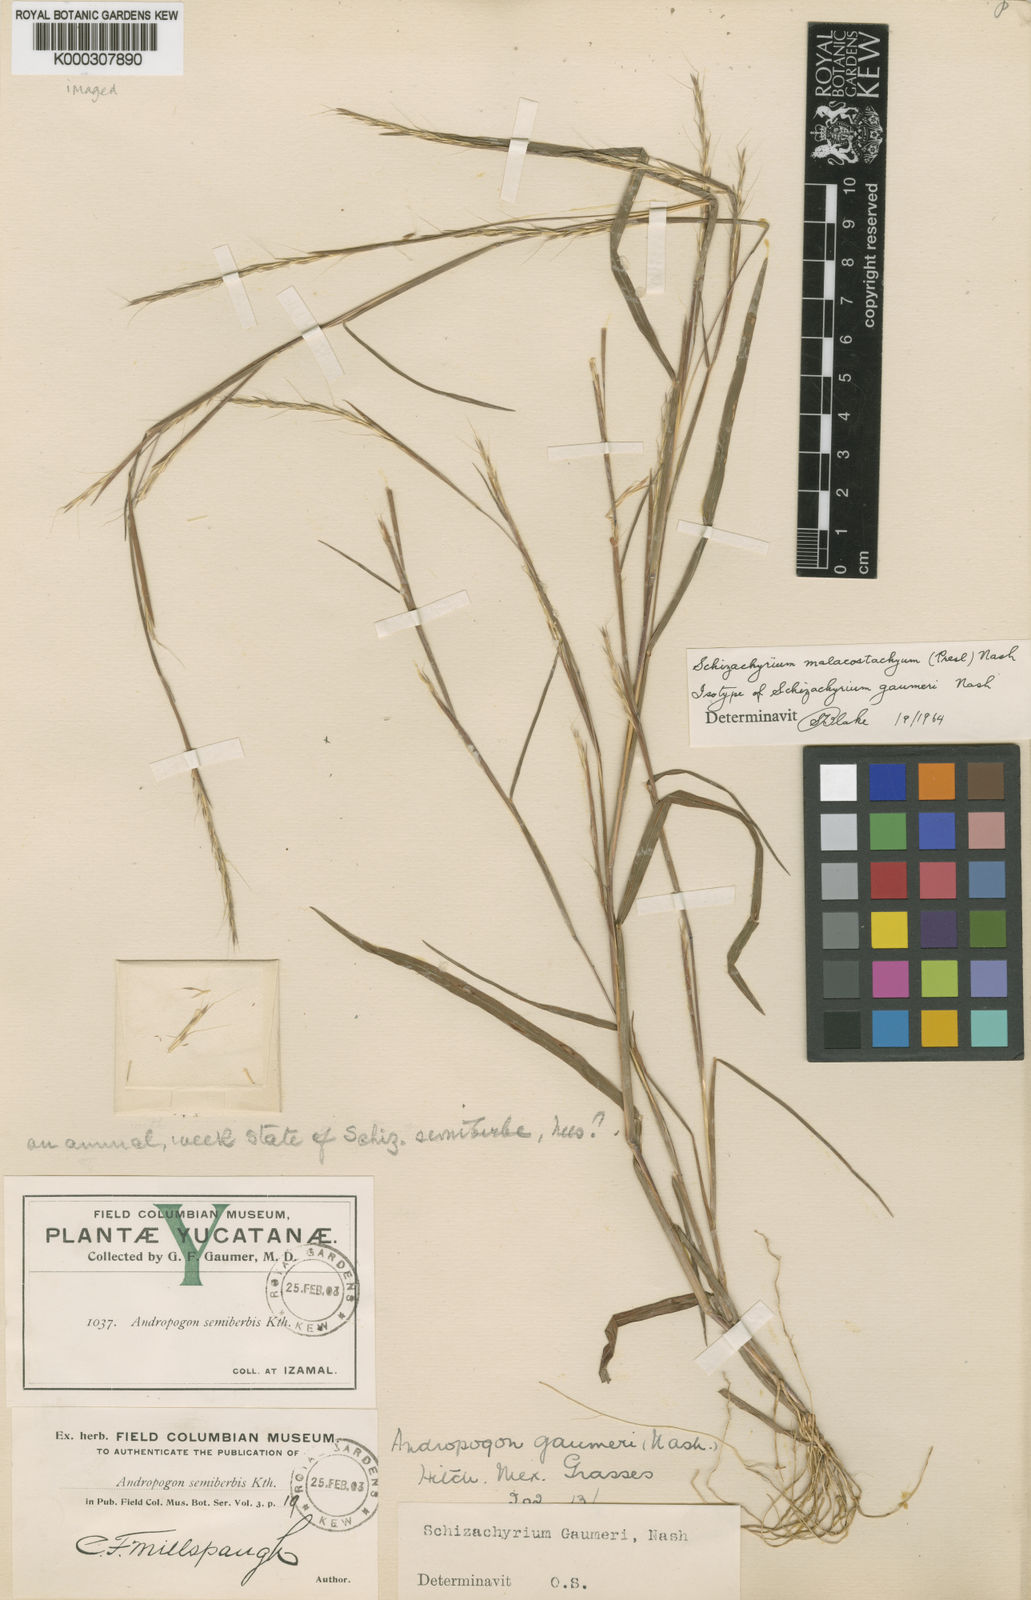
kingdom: Plantae
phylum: Tracheophyta
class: Liliopsida
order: Poales
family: Poaceae
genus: Schizachyrium
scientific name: Schizachyrium malacostachyum
